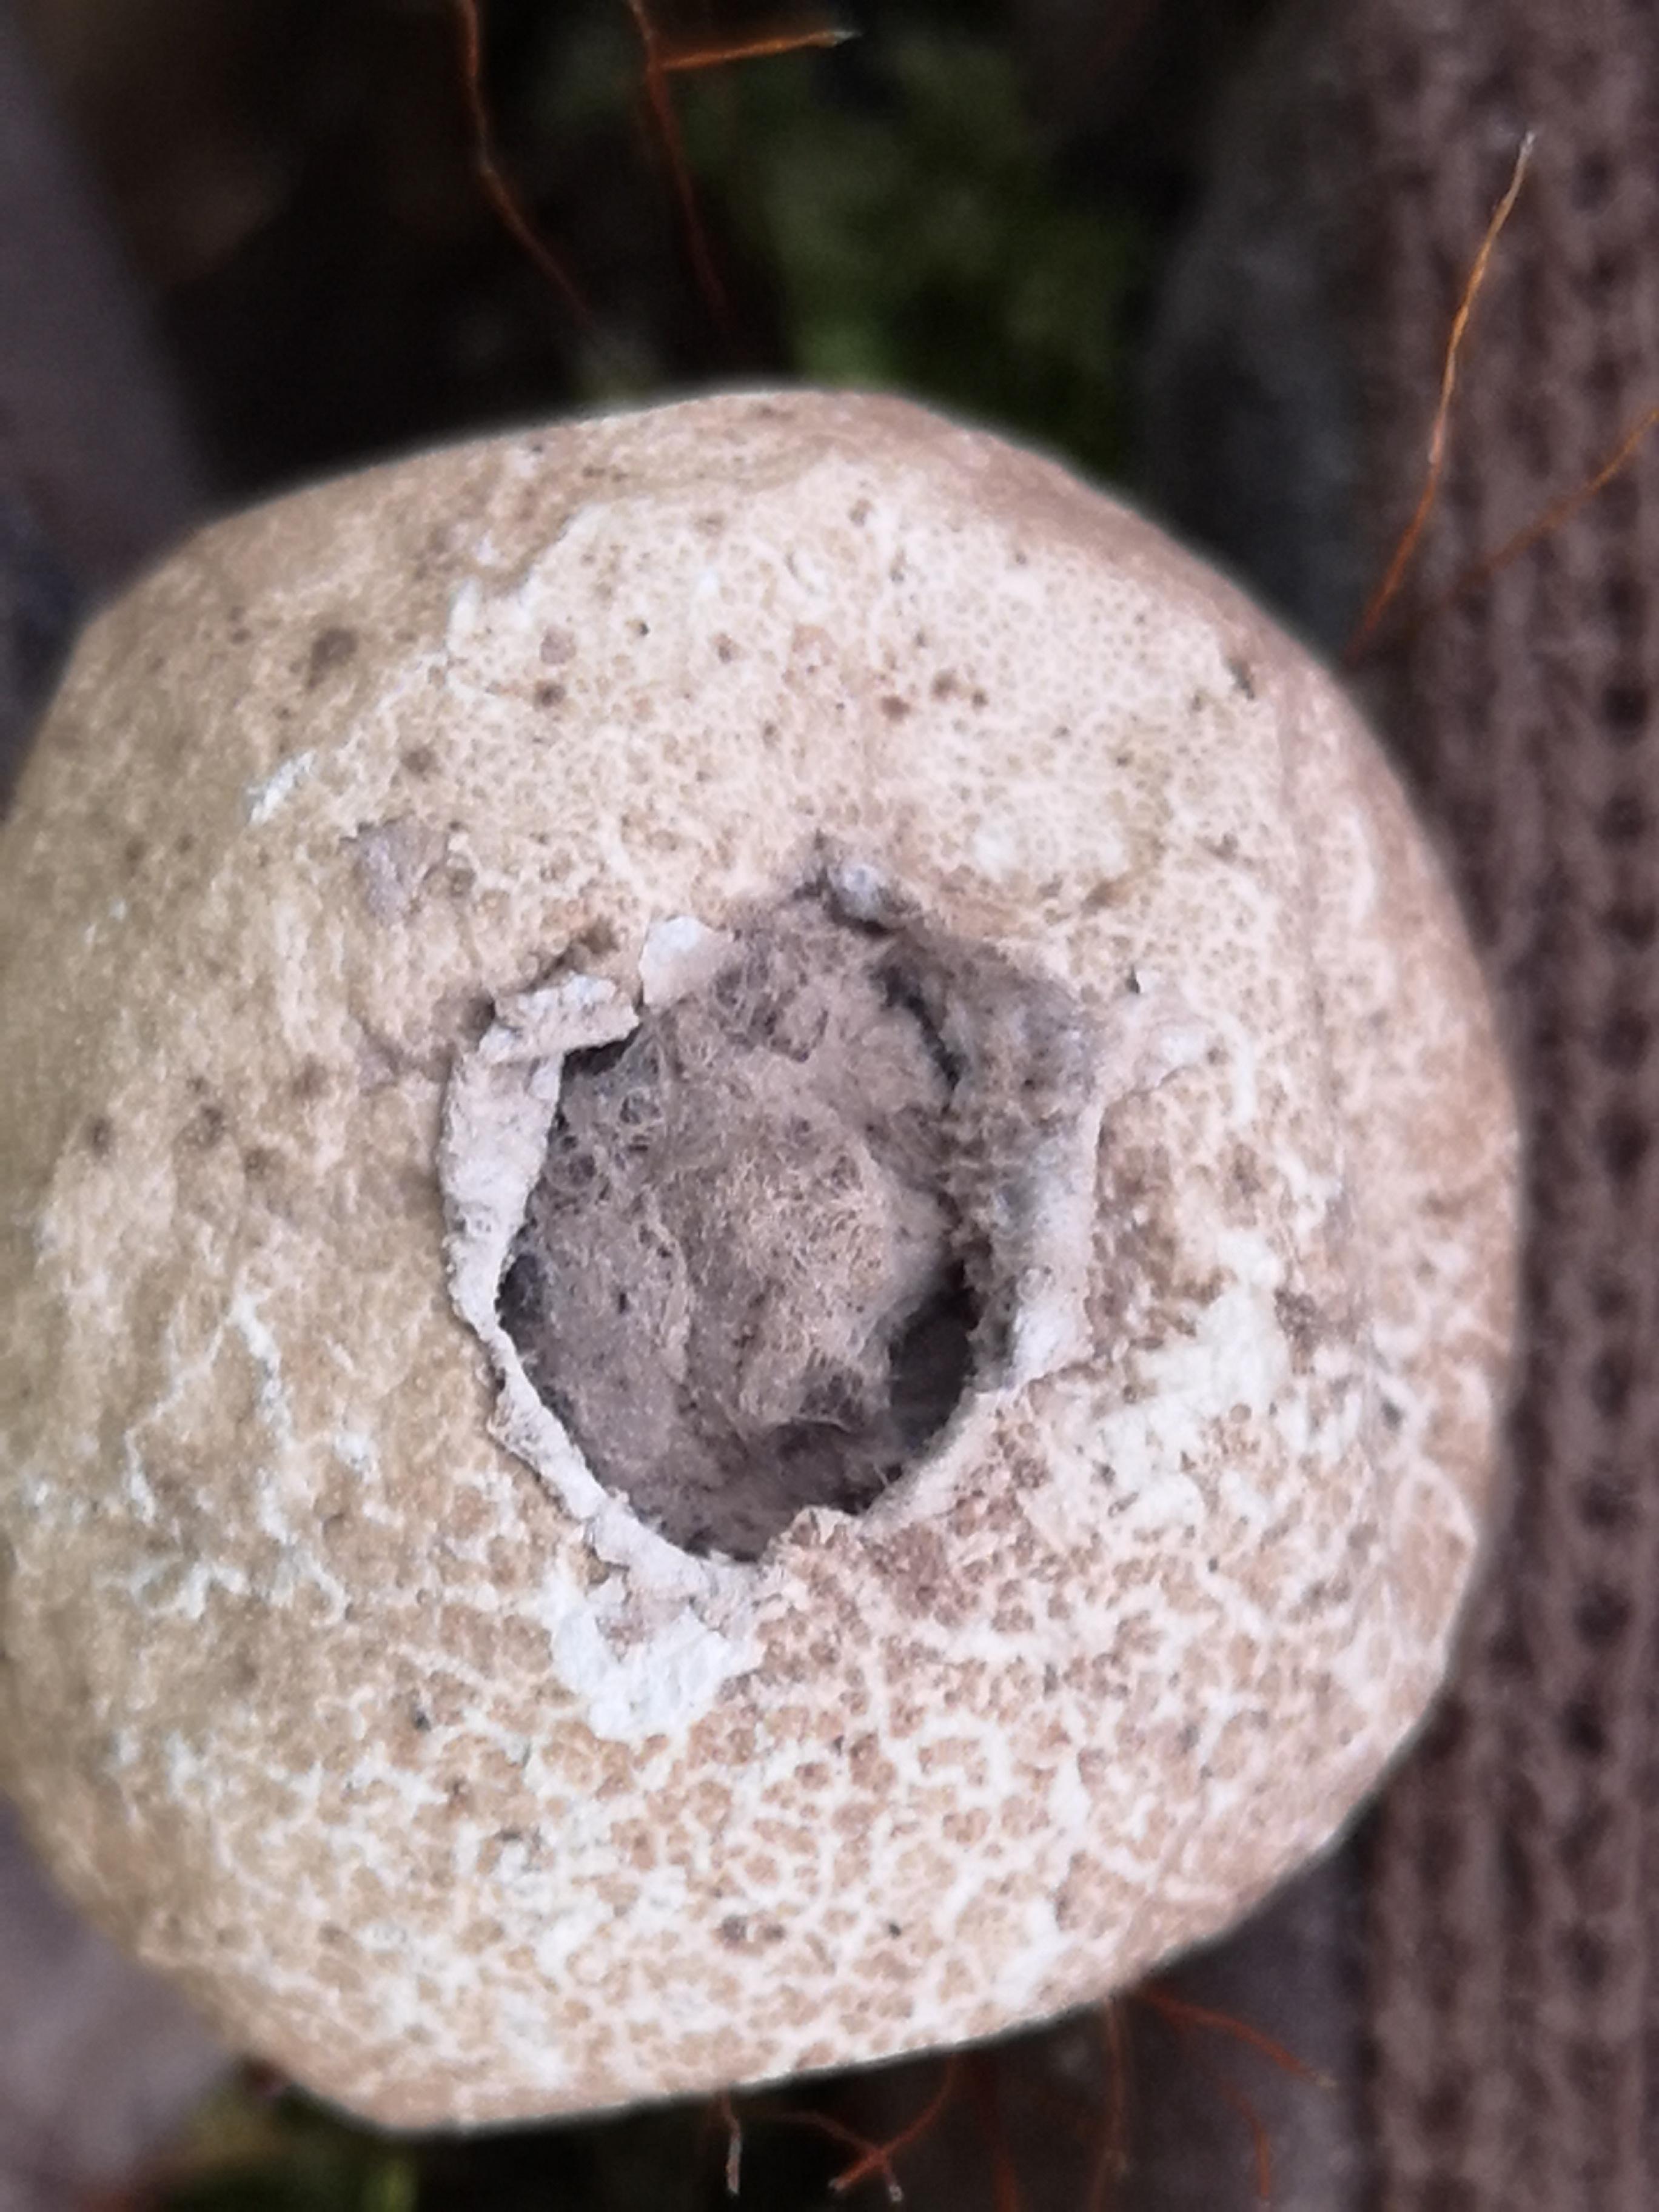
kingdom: Fungi
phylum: Basidiomycota
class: Agaricomycetes
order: Agaricales
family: Agaricaceae
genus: Lycoperdon
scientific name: Lycoperdon
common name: støvbold
